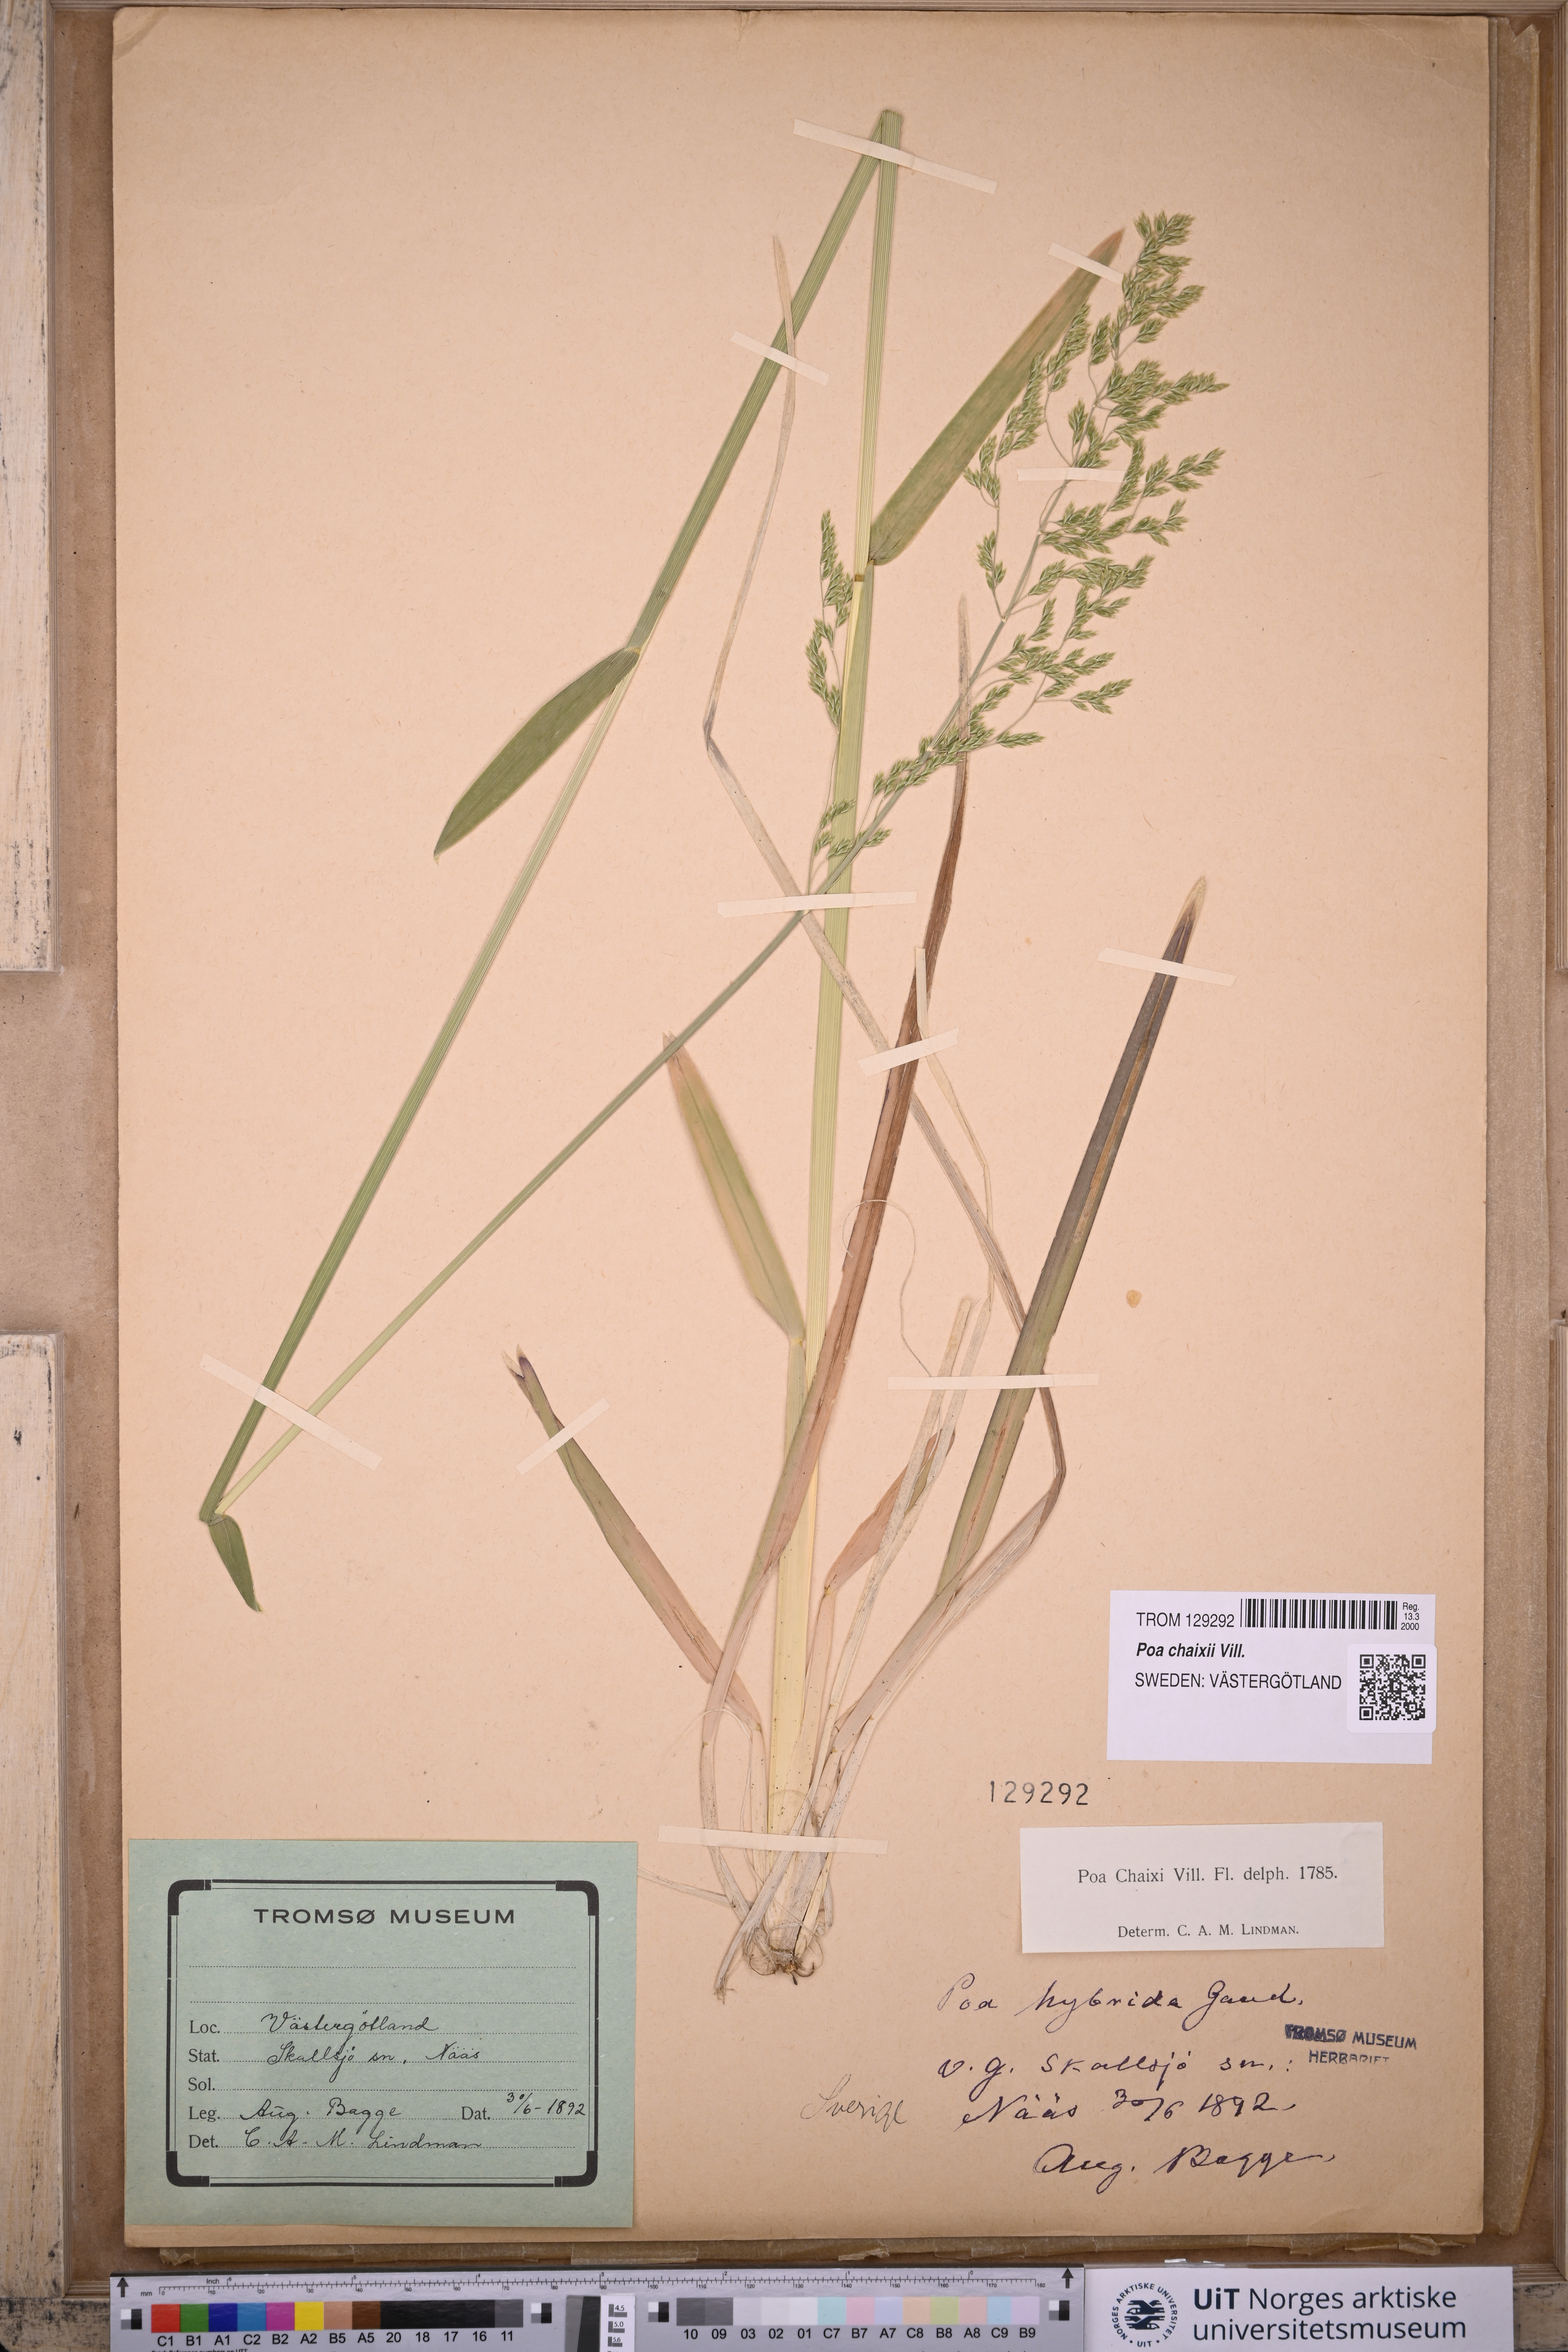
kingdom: Plantae
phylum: Tracheophyta
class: Liliopsida
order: Poales
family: Poaceae
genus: Poa
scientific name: Poa chaixii
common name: Broad-leaved meadow-grass
